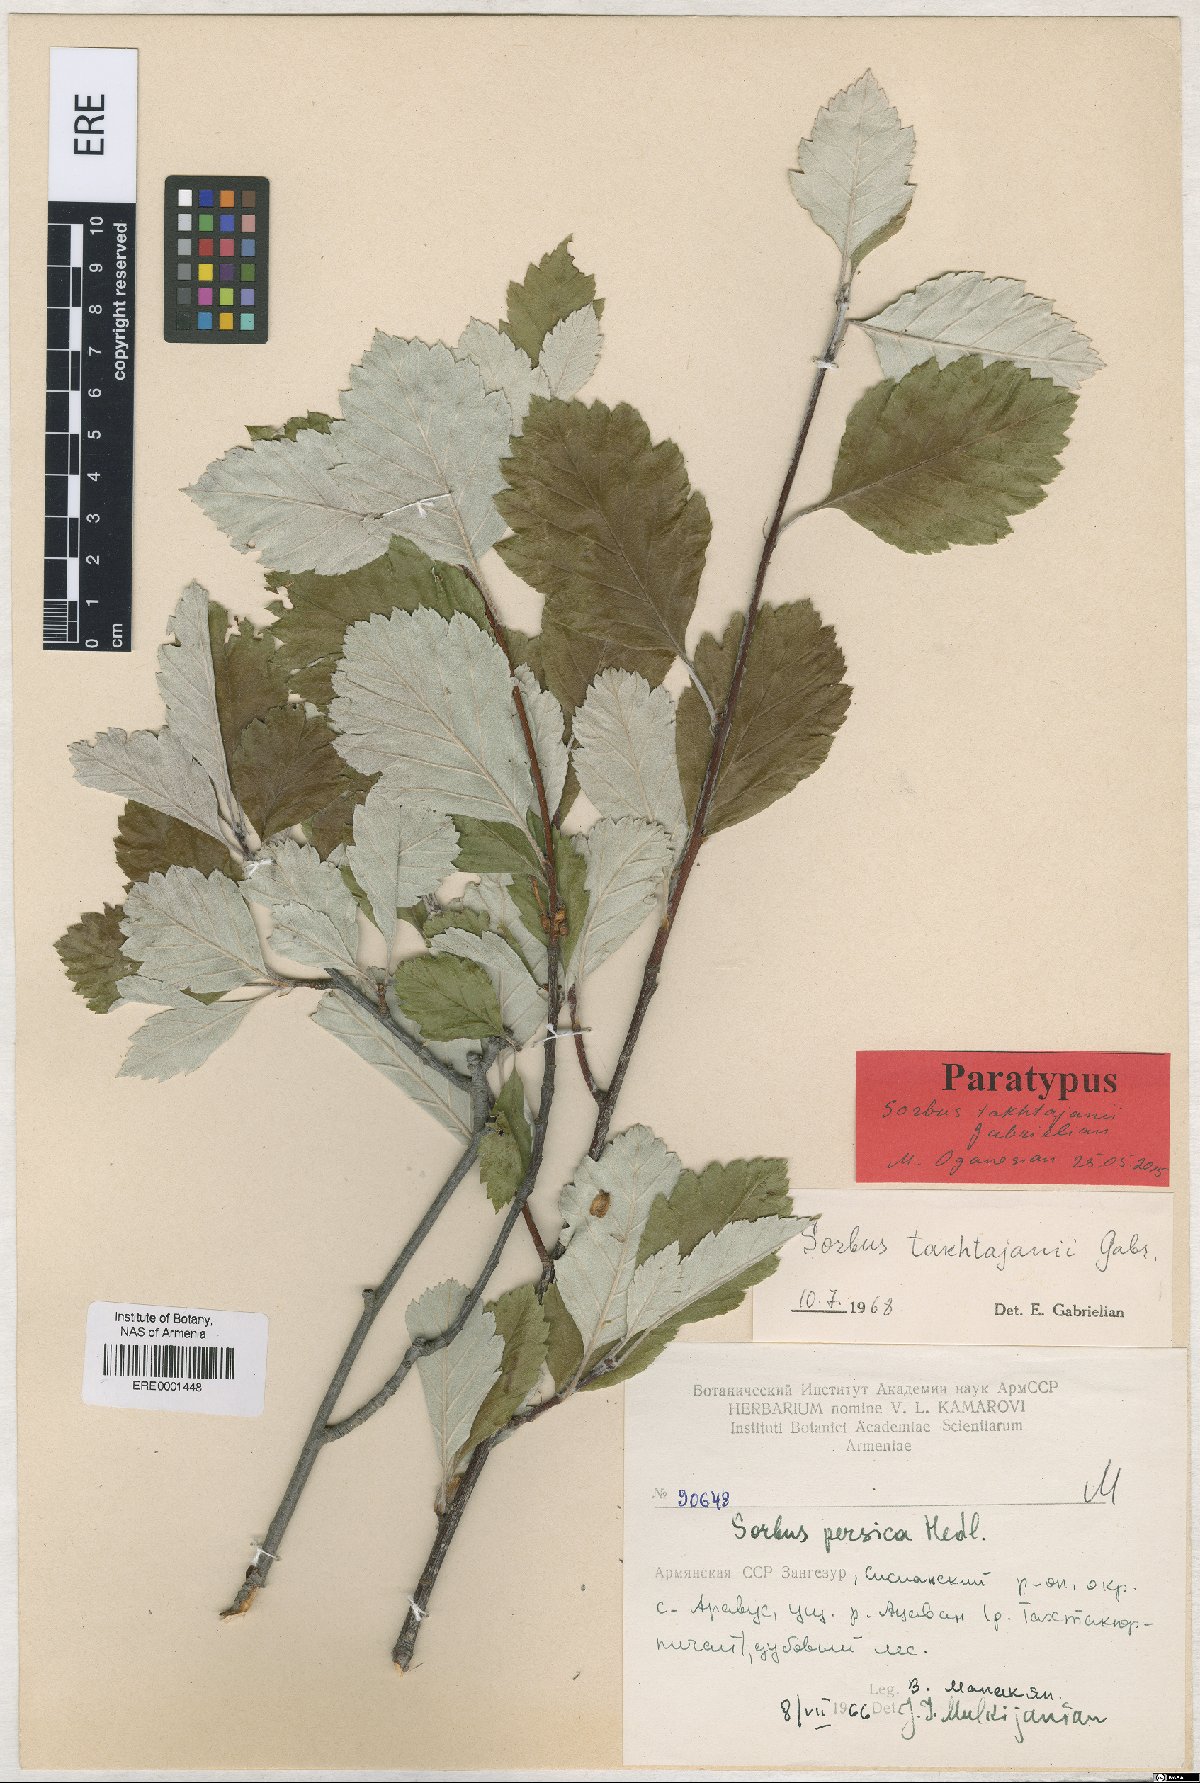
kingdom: Plantae
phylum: Tracheophyta
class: Magnoliopsida
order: Rosales
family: Rosaceae
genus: Hedlundia
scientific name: Hedlundia takhtajanii
